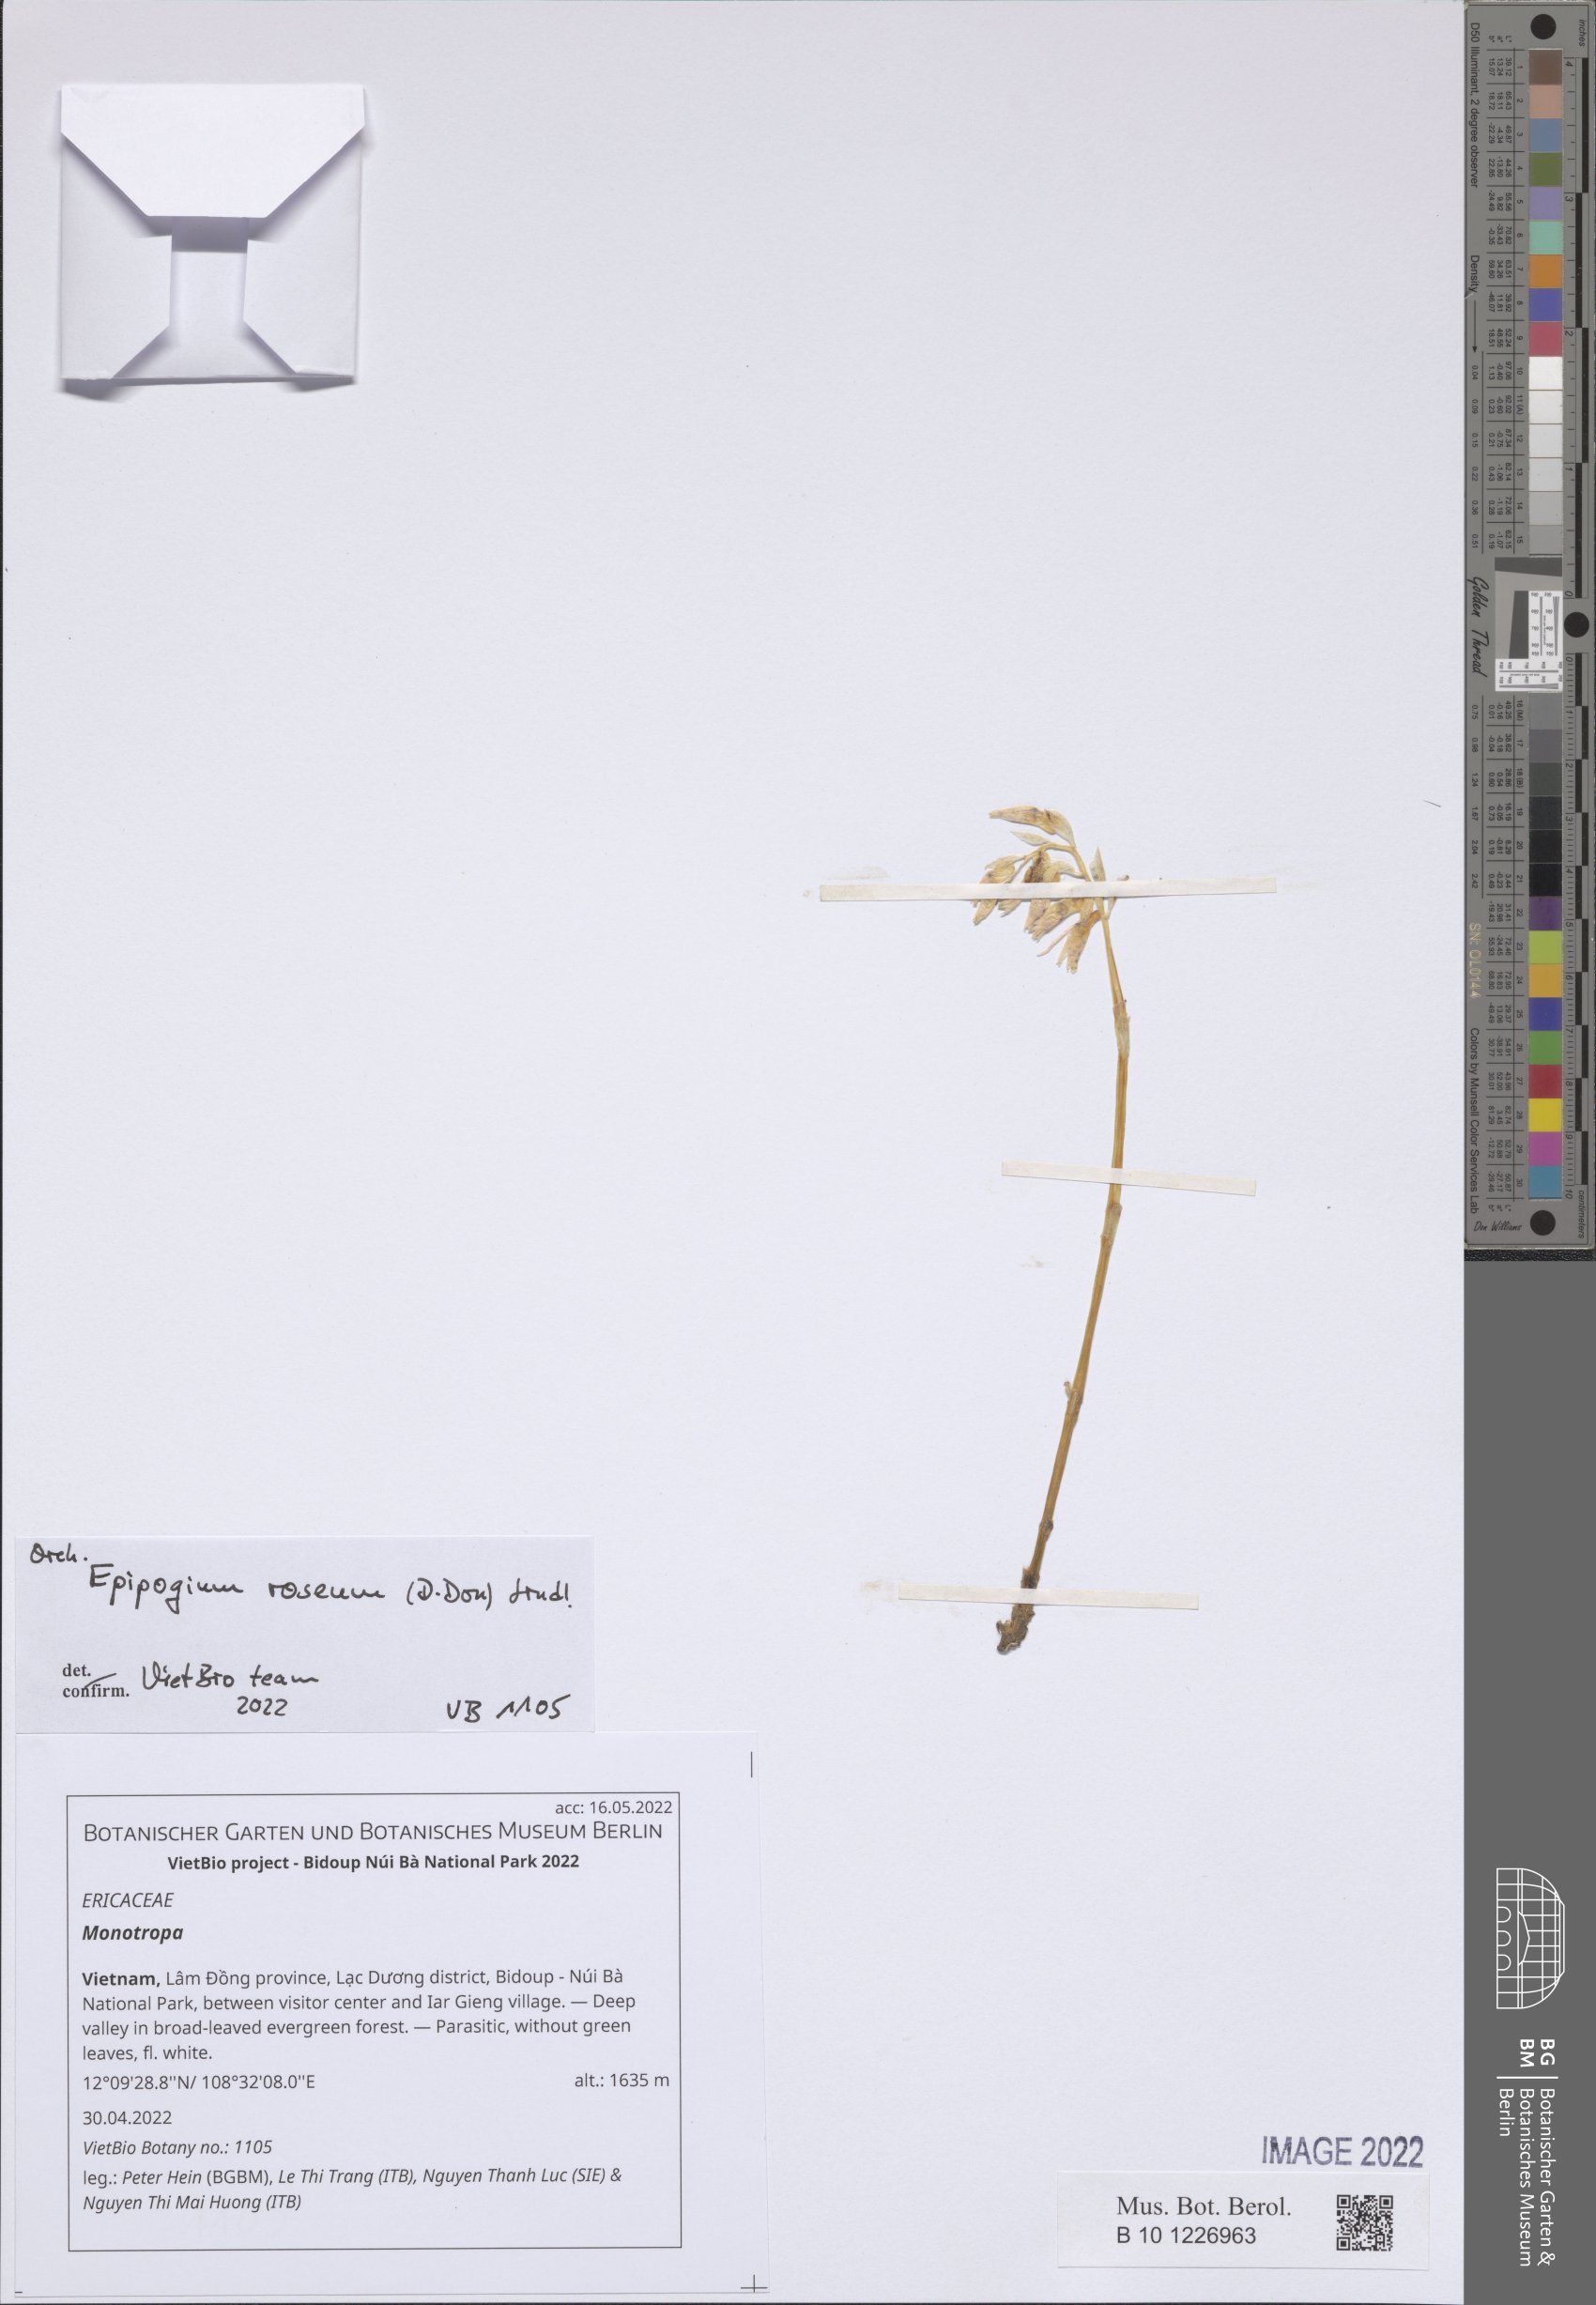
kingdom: Plantae
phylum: Tracheophyta
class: Magnoliopsida
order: Ericales
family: Ericaceae
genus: Monotropa
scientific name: Monotropa
